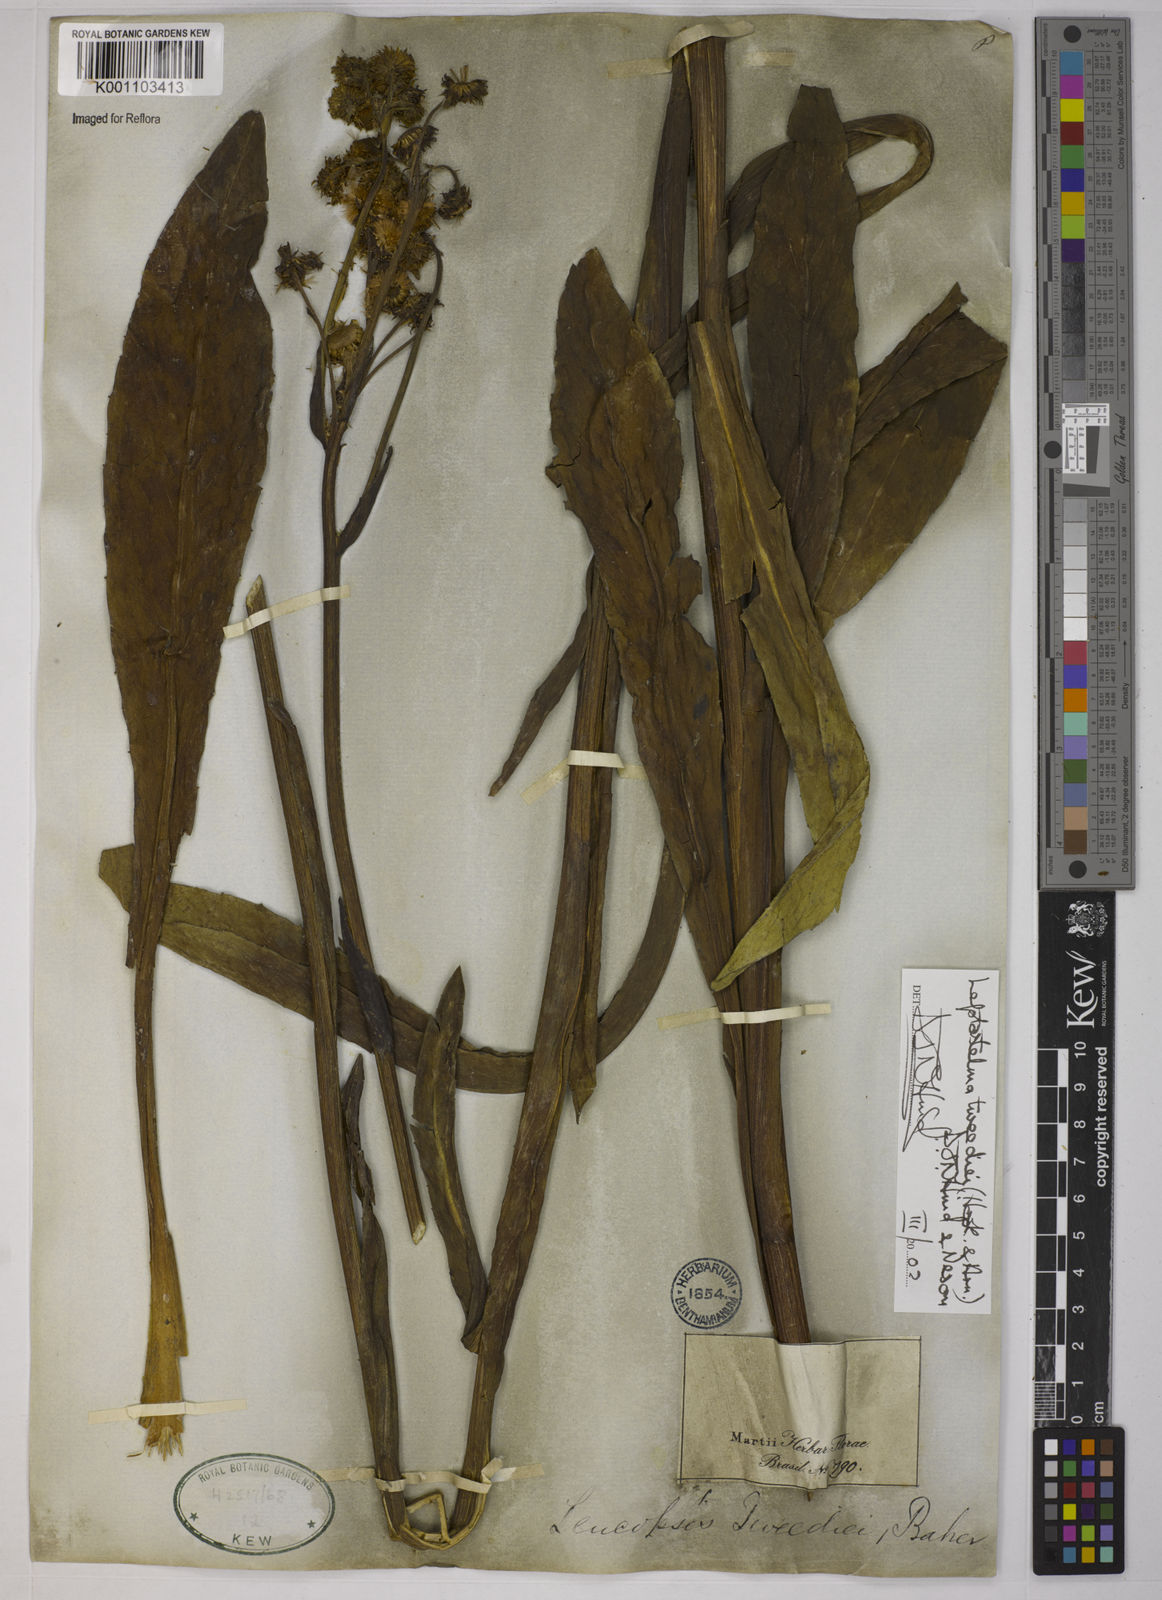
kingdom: Plantae
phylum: Tracheophyta
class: Magnoliopsida
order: Asterales
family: Asteraceae
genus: Leptostelma
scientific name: Leptostelma tweediei
